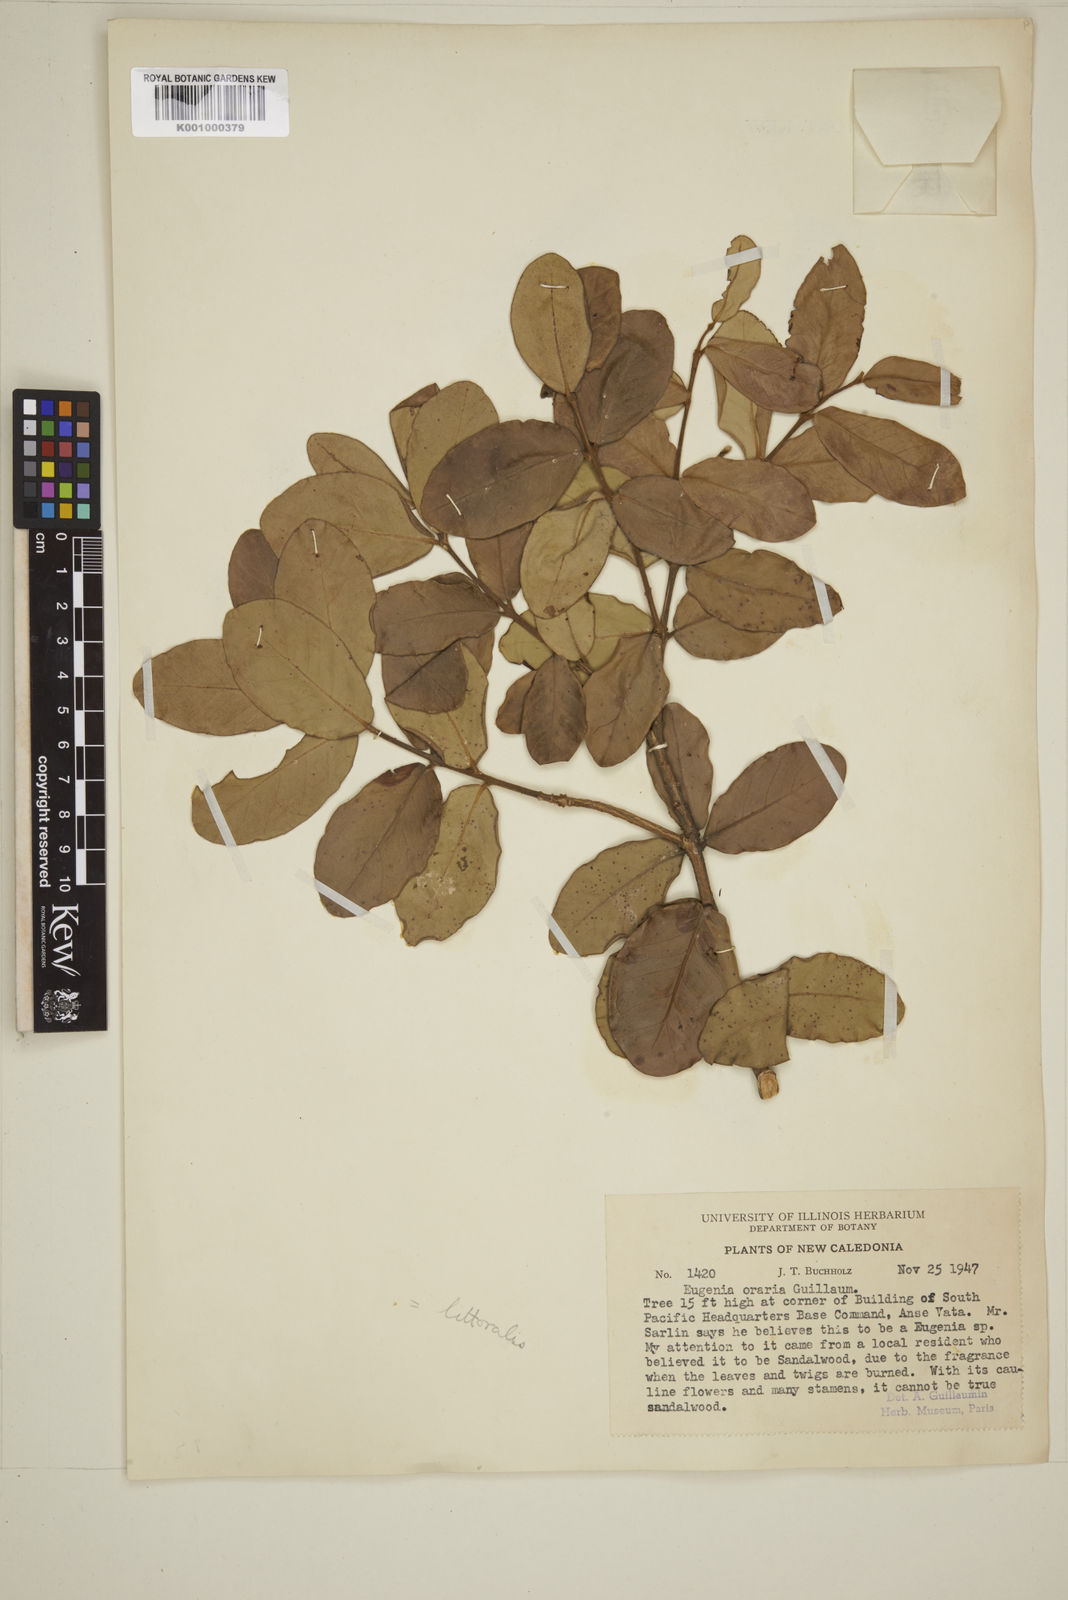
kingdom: Plantae
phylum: Tracheophyta
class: Magnoliopsida
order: Myrtales
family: Myrtaceae
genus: Eugenia
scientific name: Eugenia littoralis
